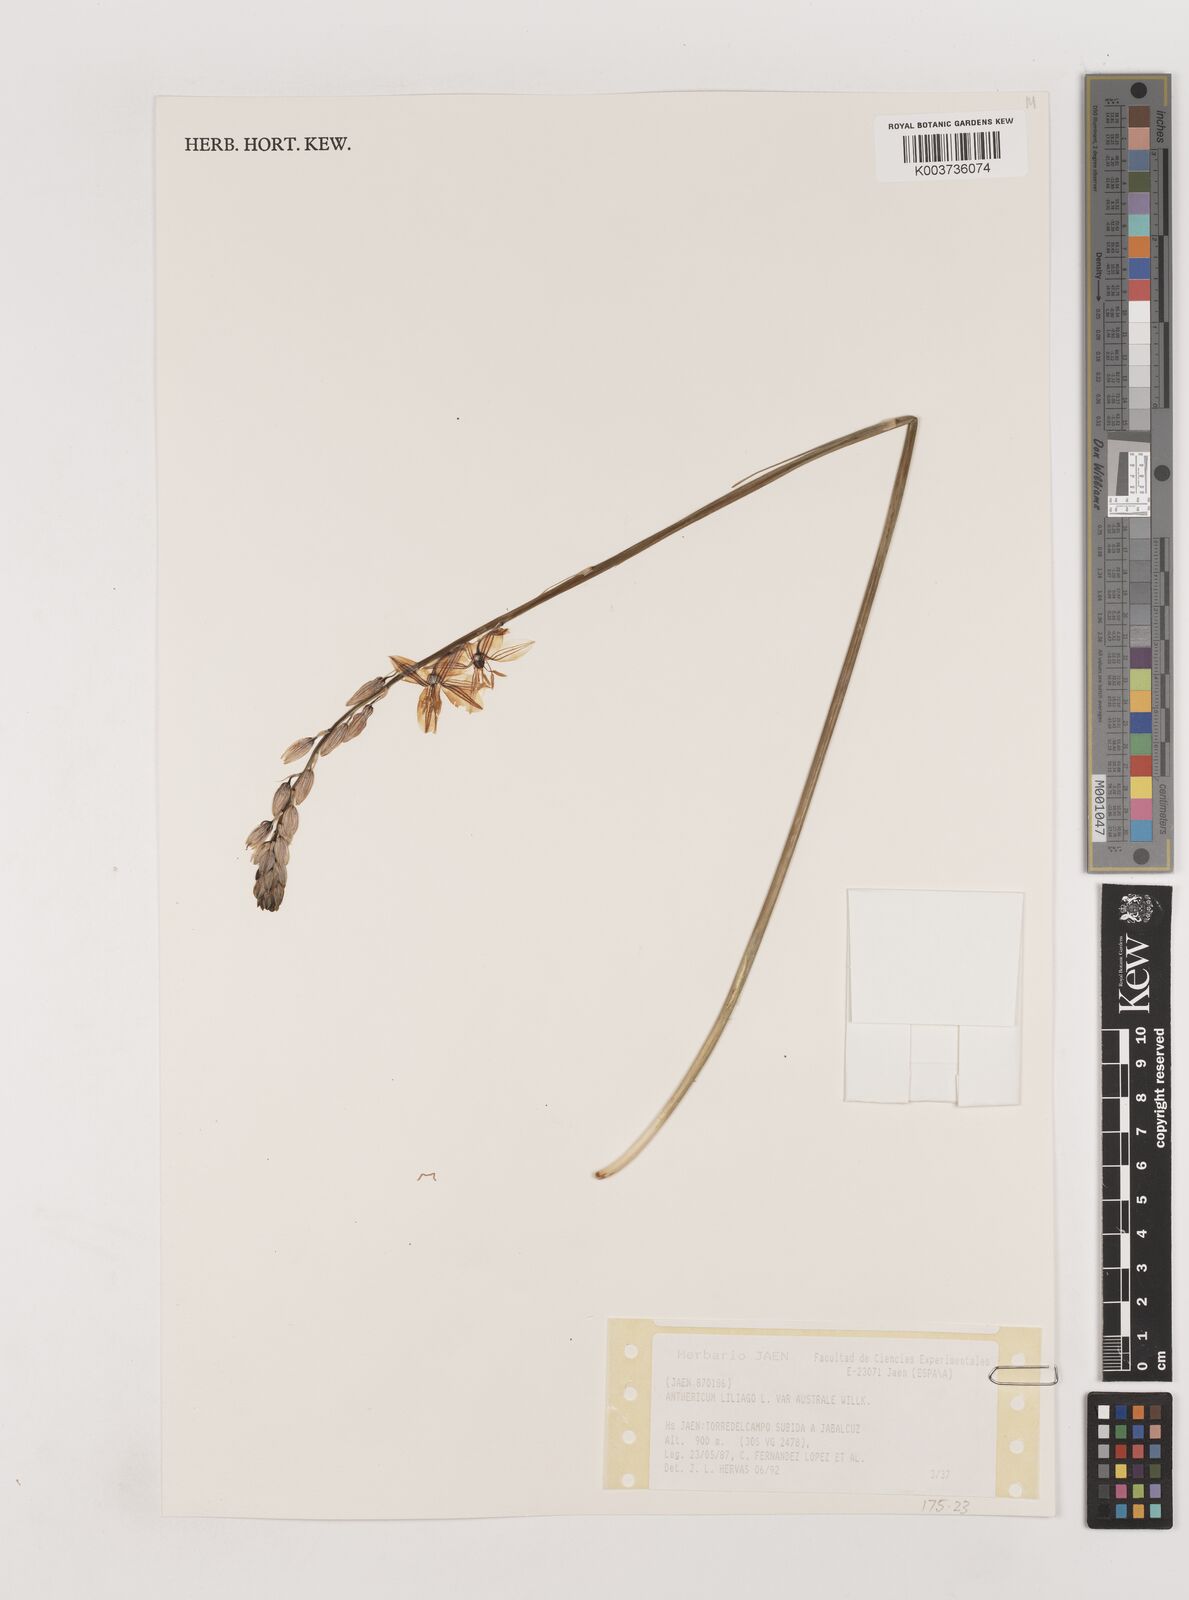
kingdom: Plantae
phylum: Tracheophyta
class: Liliopsida
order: Asparagales
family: Asparagaceae
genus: Anthericum
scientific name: Anthericum liliago
